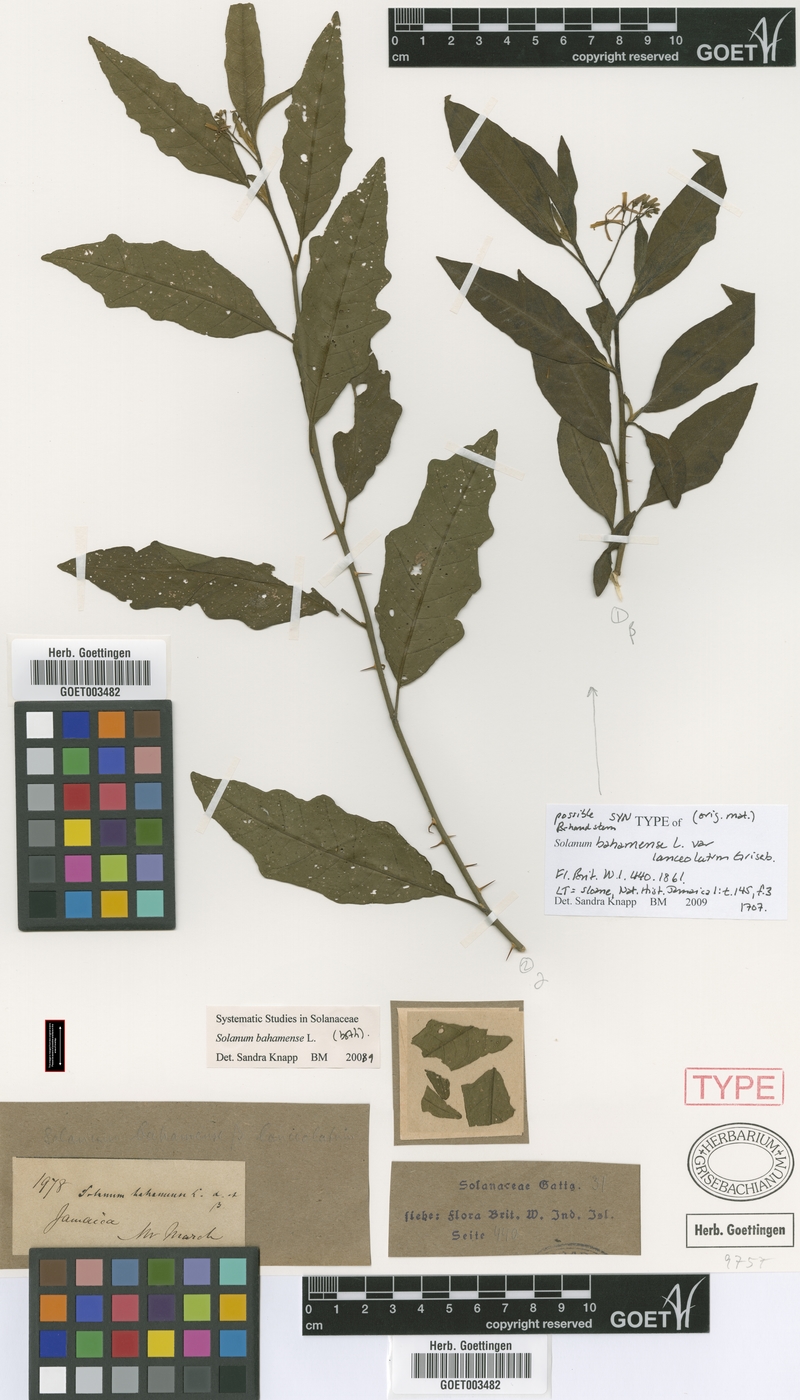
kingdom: Plantae
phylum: Tracheophyta
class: Magnoliopsida
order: Solanales
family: Solanaceae
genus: Solanum
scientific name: Solanum bahamense
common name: Canker-berry
